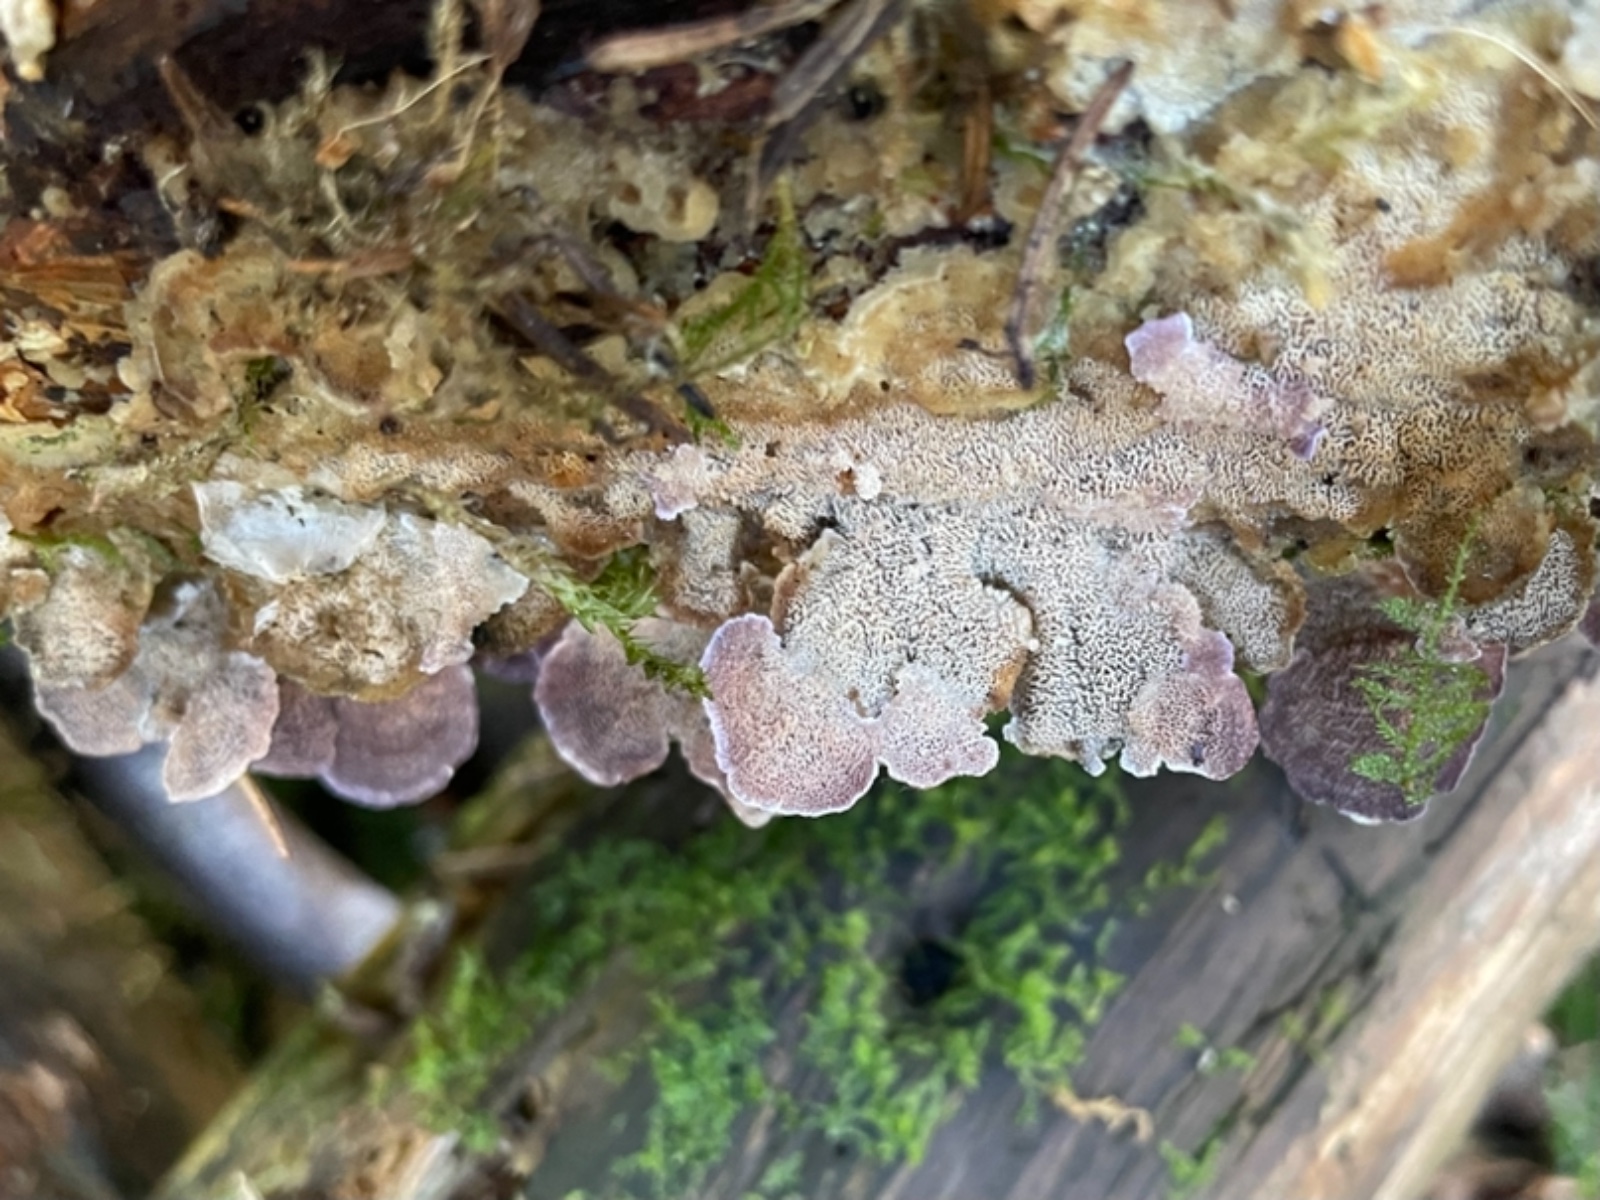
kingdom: Fungi
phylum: Basidiomycota
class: Agaricomycetes
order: Hymenochaetales
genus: Trichaptum
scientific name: Trichaptum abietinum
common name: almindelig violporesvamp
